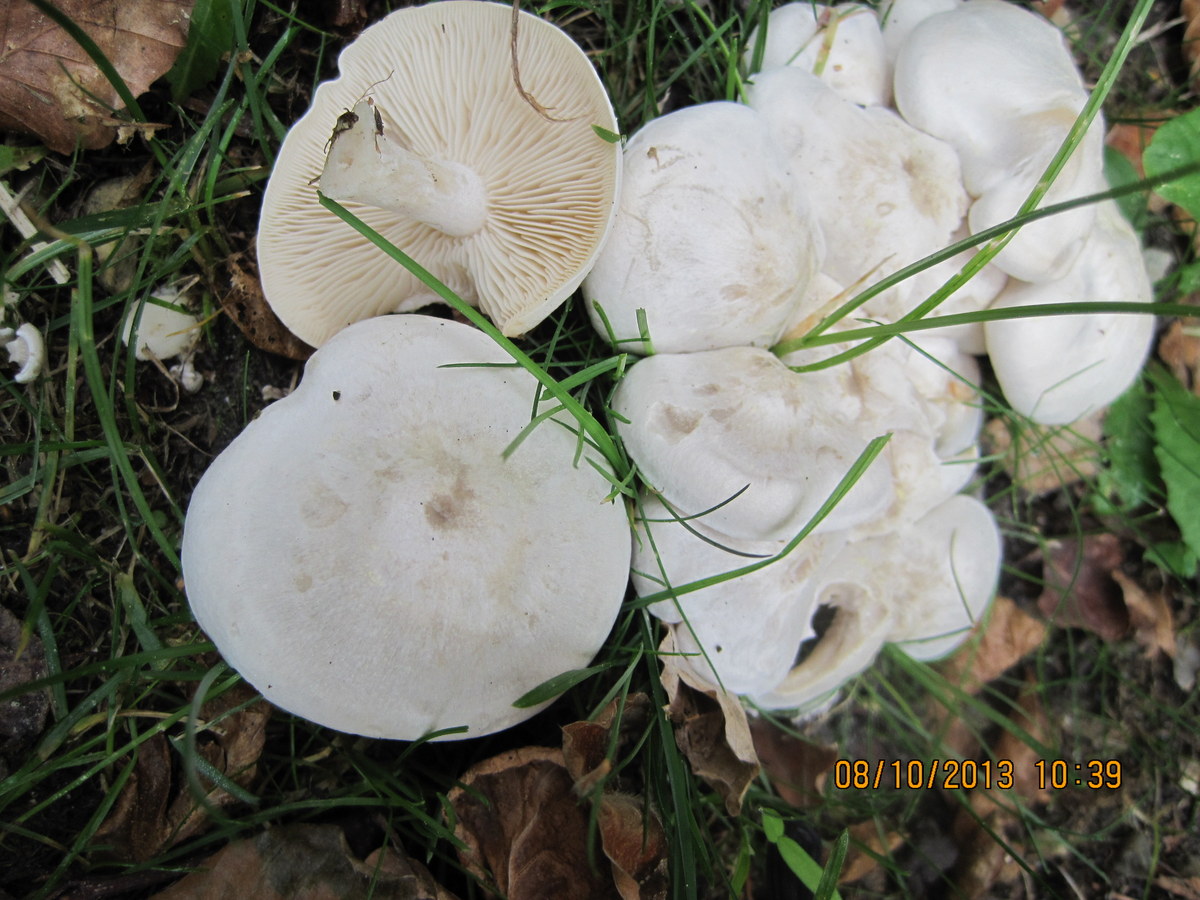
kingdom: Fungi
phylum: Basidiomycota
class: Agaricomycetes
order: Agaricales
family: Tricholomataceae
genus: Leucocybe
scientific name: Leucocybe connata
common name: knippe-tragthat
